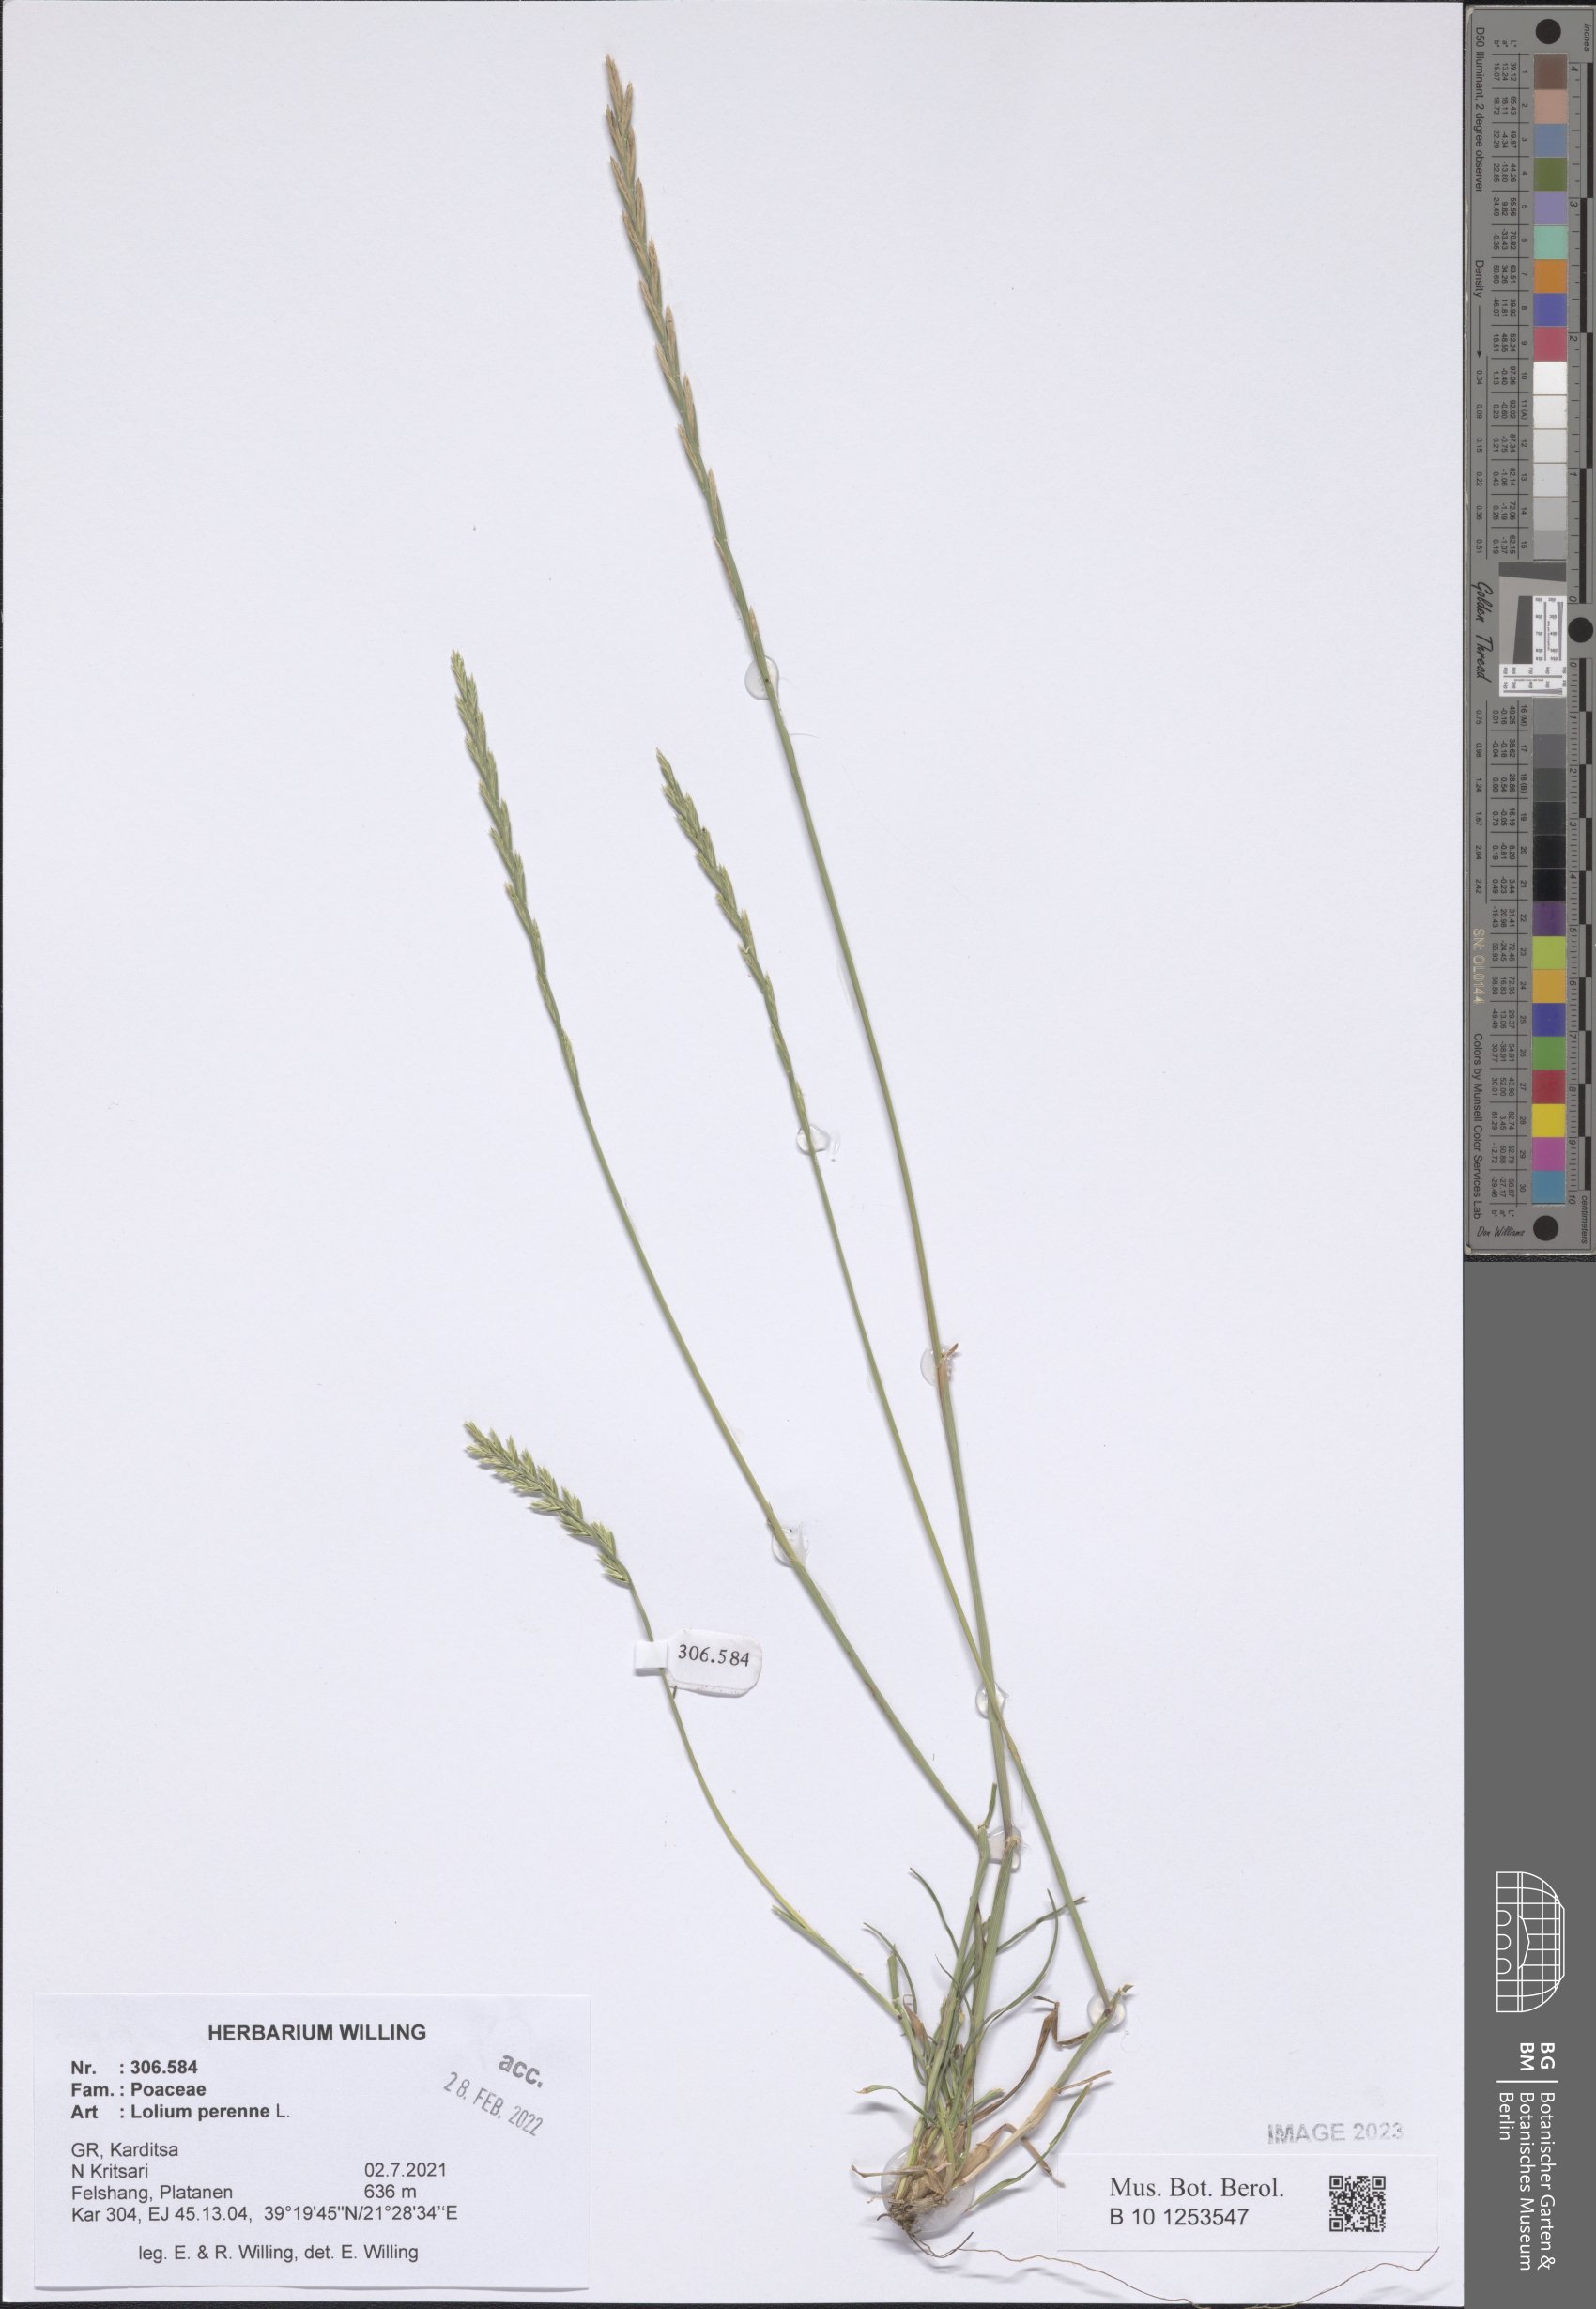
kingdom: Plantae
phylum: Tracheophyta
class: Liliopsida
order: Poales
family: Poaceae
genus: Lolium
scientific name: Lolium perenne
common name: Perennial ryegrass
